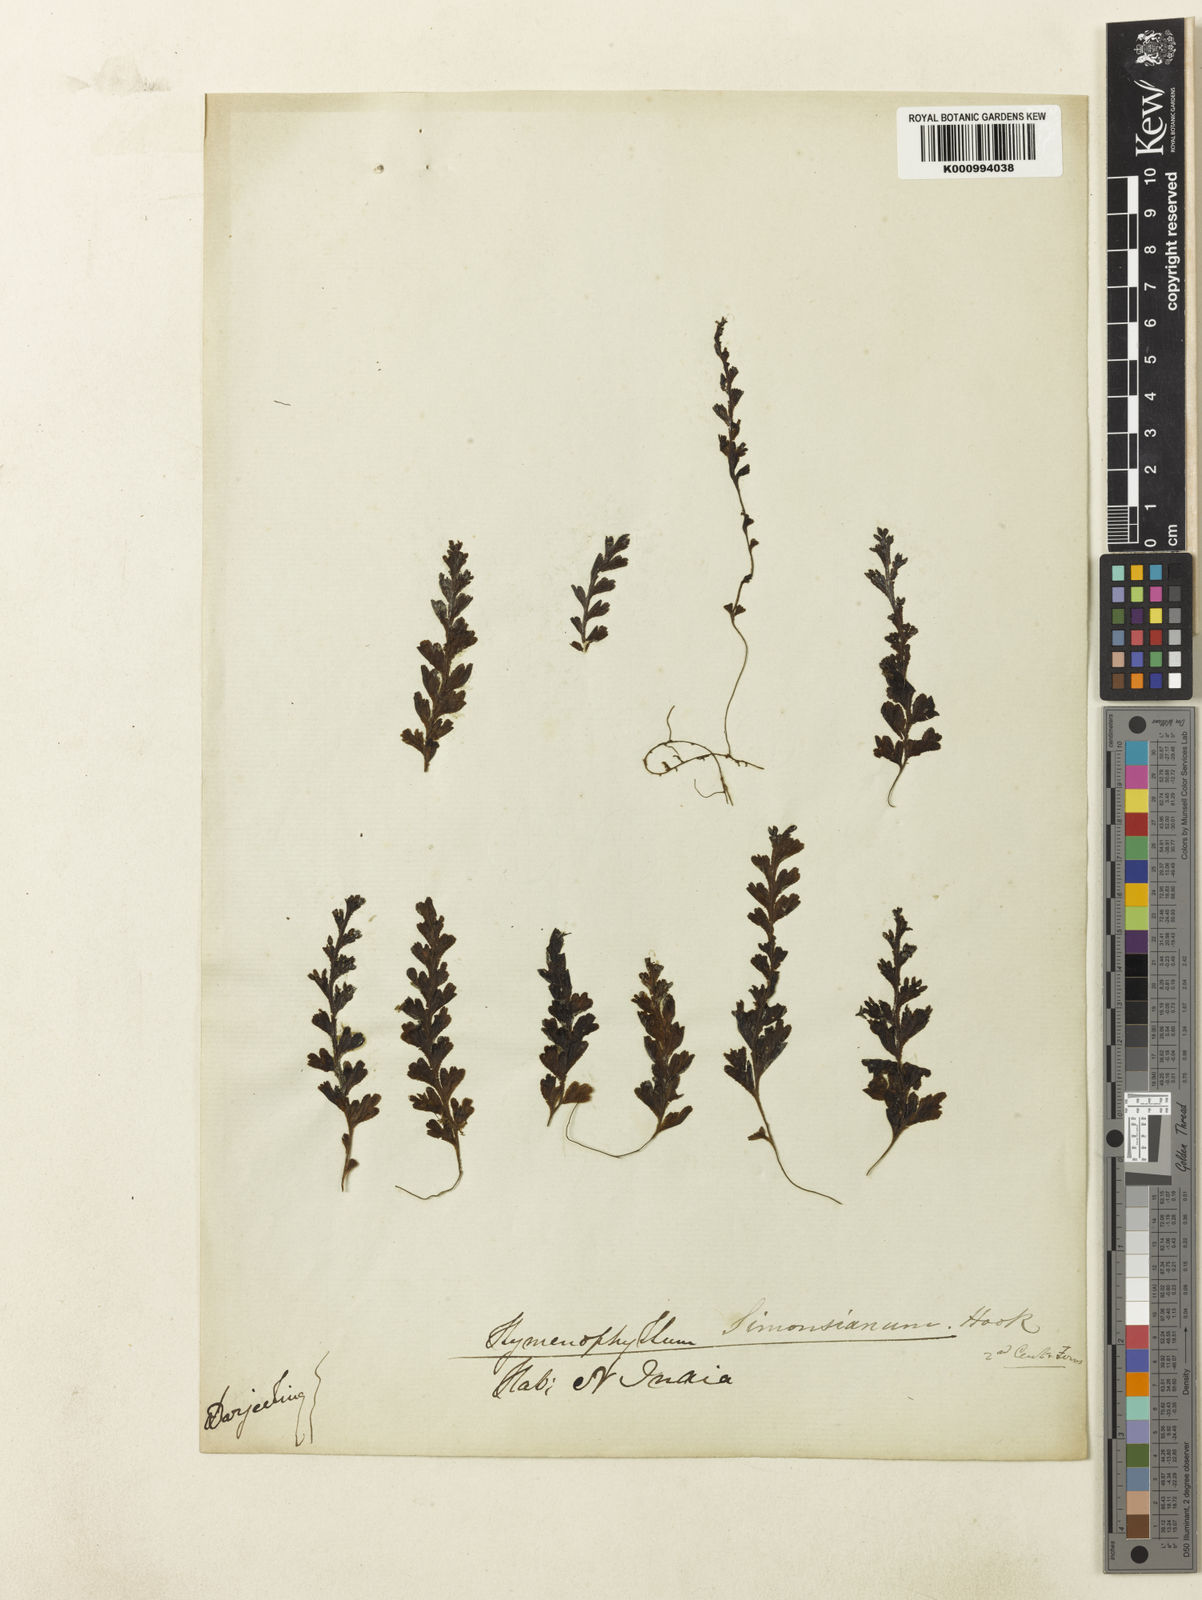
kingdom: Plantae
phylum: Tracheophyta
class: Polypodiopsida
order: Hymenophyllales
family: Hymenophyllaceae
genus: Hymenophyllum
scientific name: Hymenophyllum simonsianum
